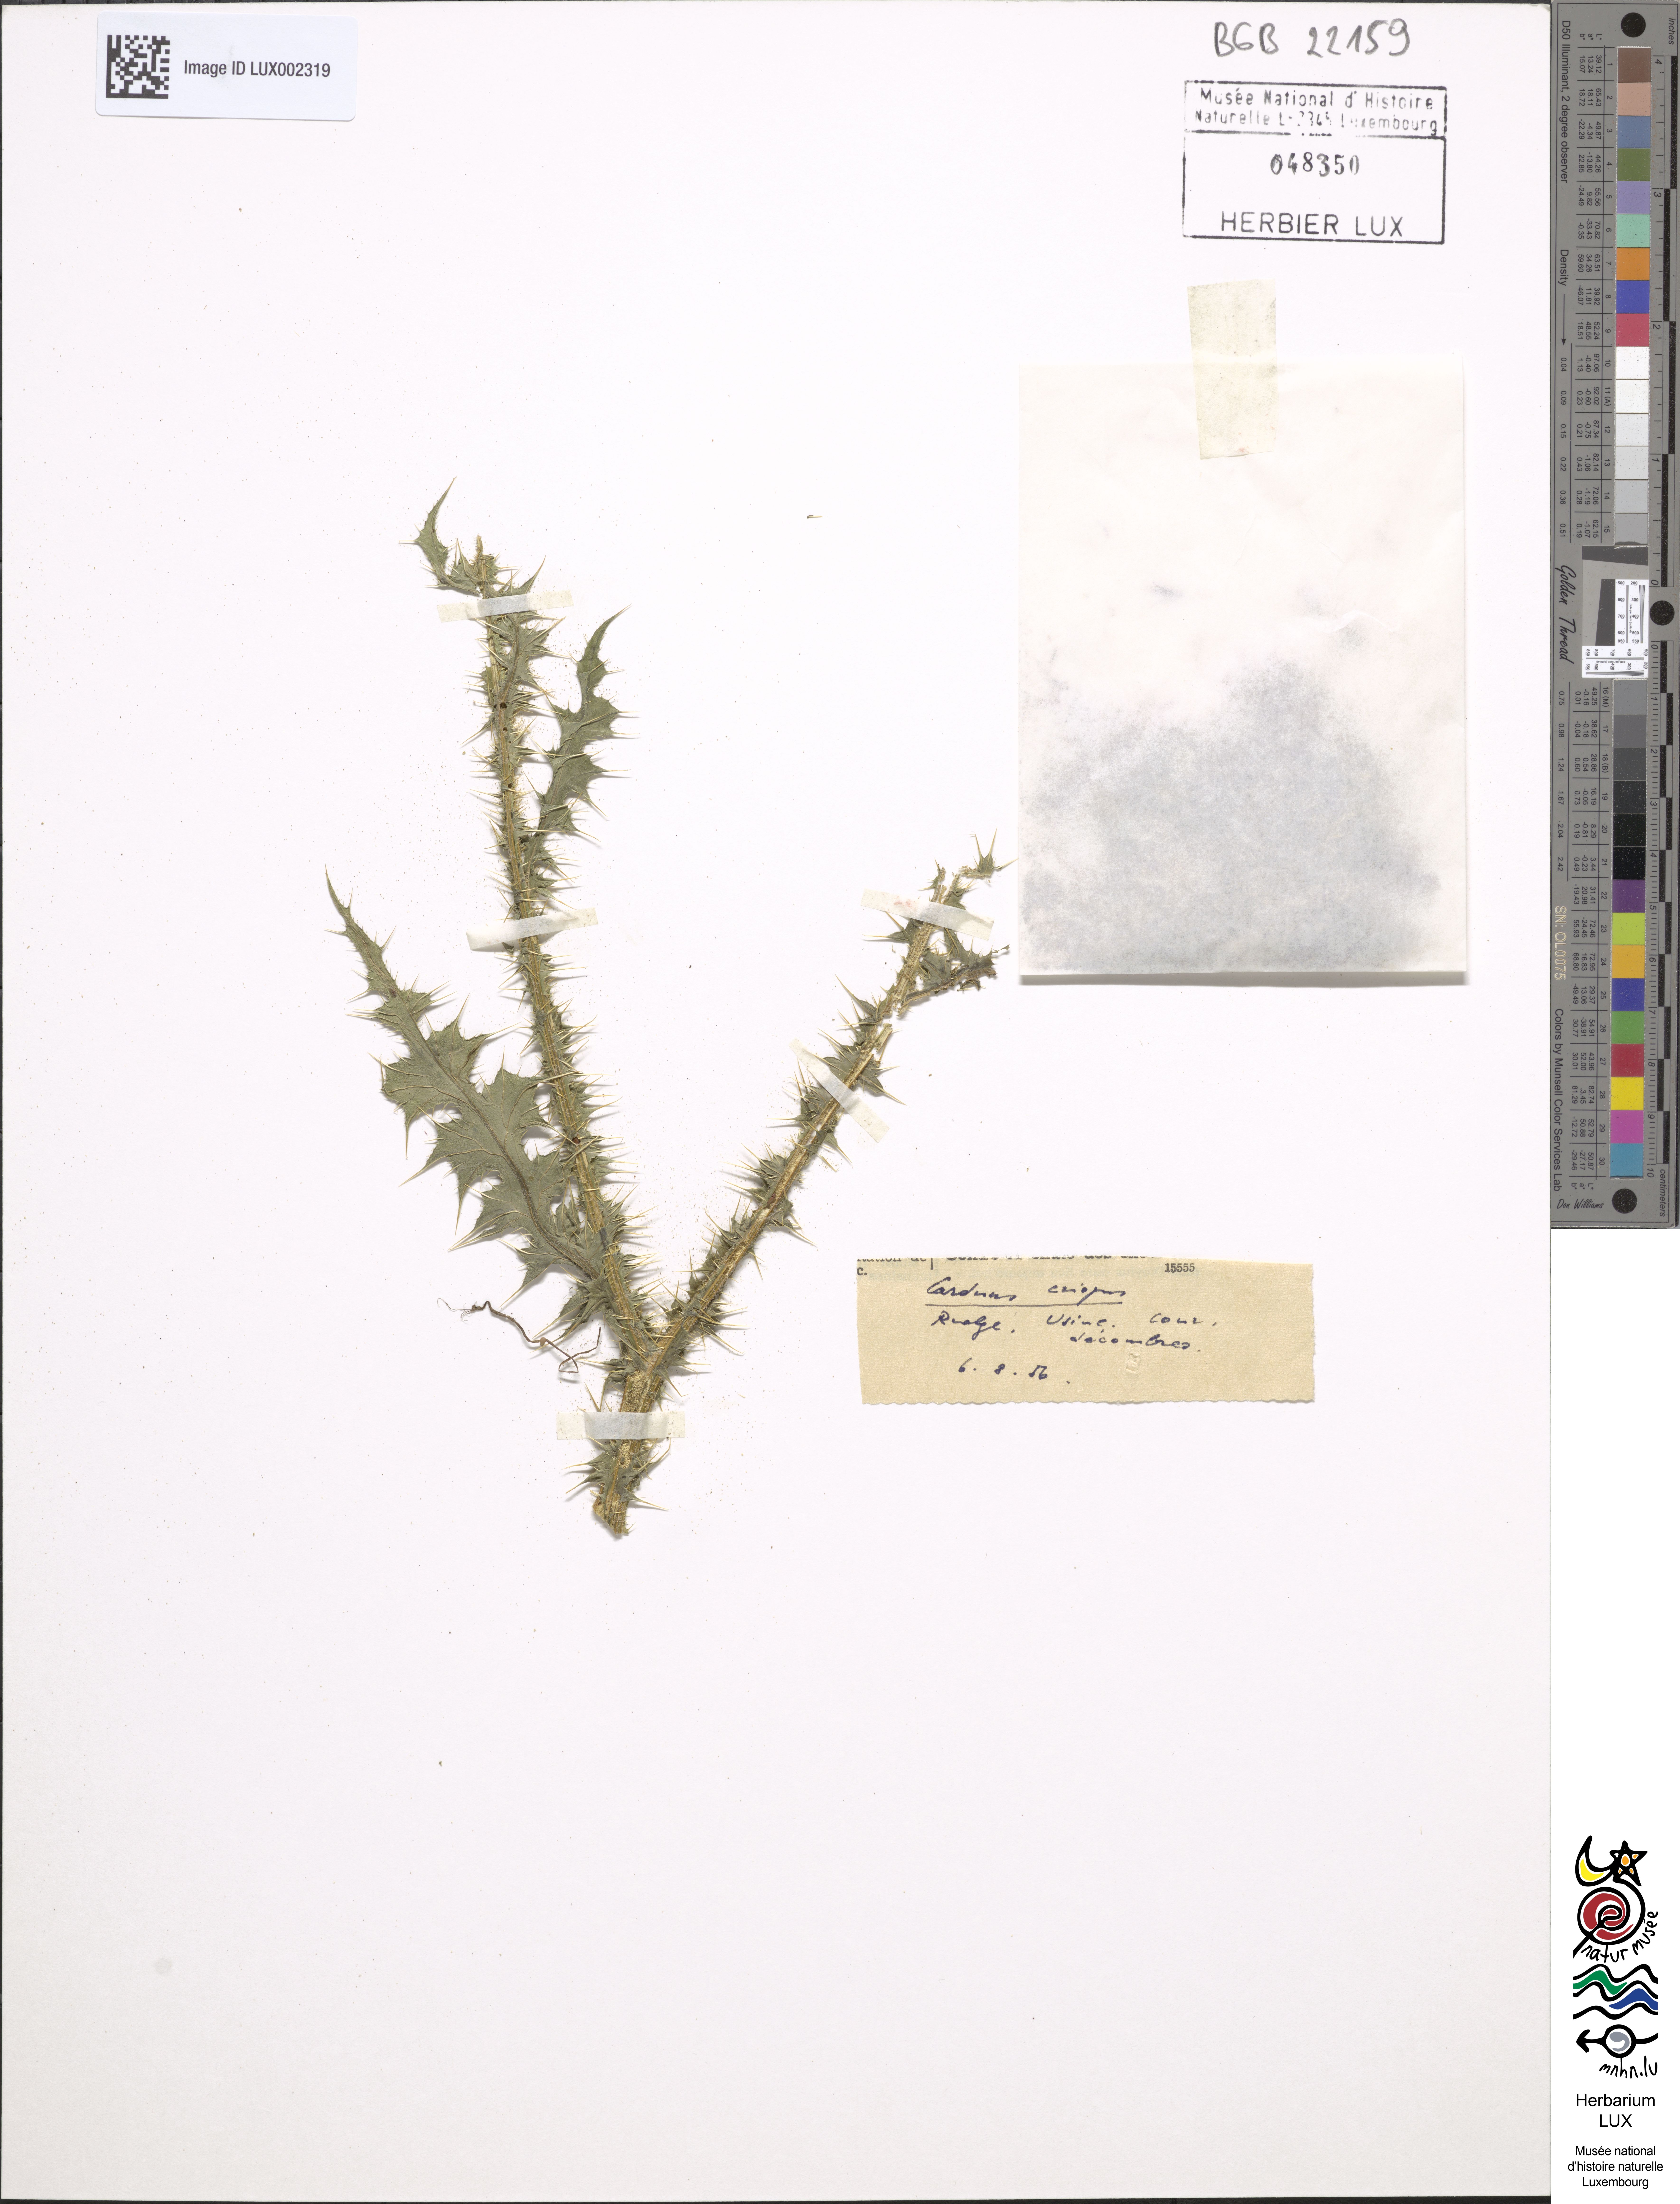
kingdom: Plantae
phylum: Tracheophyta
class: Magnoliopsida
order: Asterales
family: Asteraceae
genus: Carduus
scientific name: Carduus crispus
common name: Welted thistle
